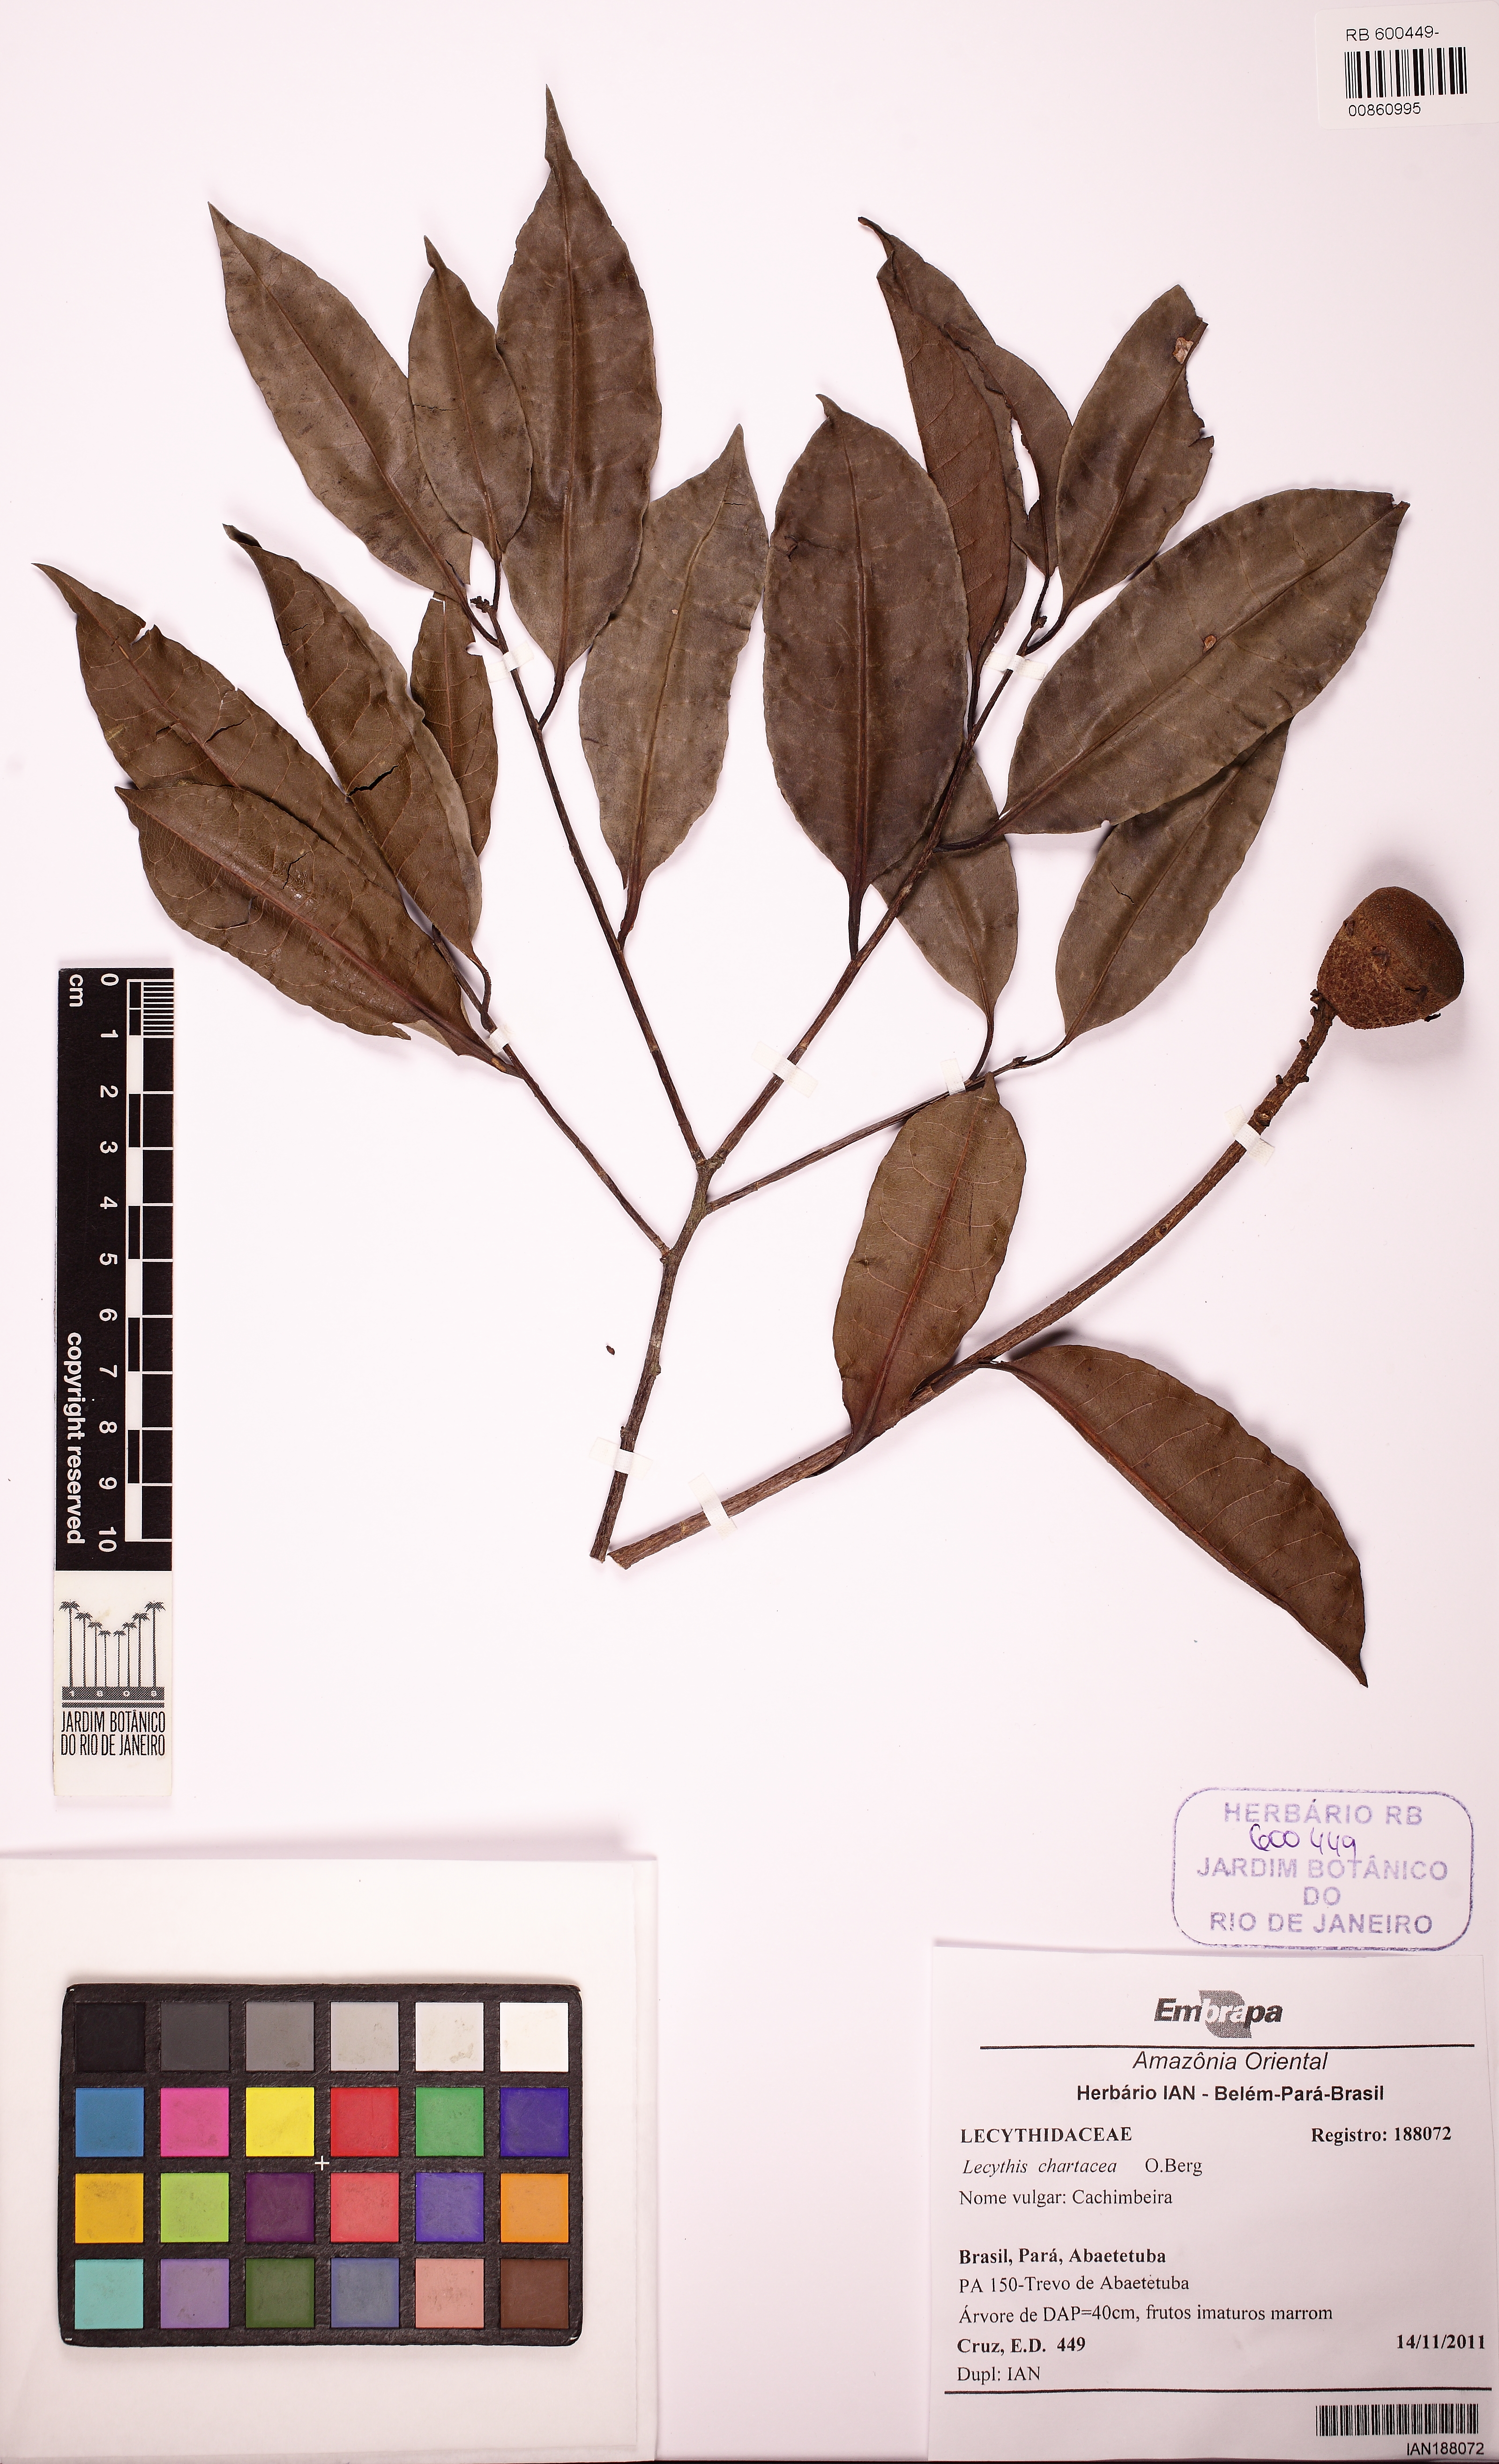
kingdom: Plantae
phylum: Tracheophyta
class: Magnoliopsida
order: Ericales
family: Lecythidaceae
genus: Lecythis
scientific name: Lecythis chartacea
